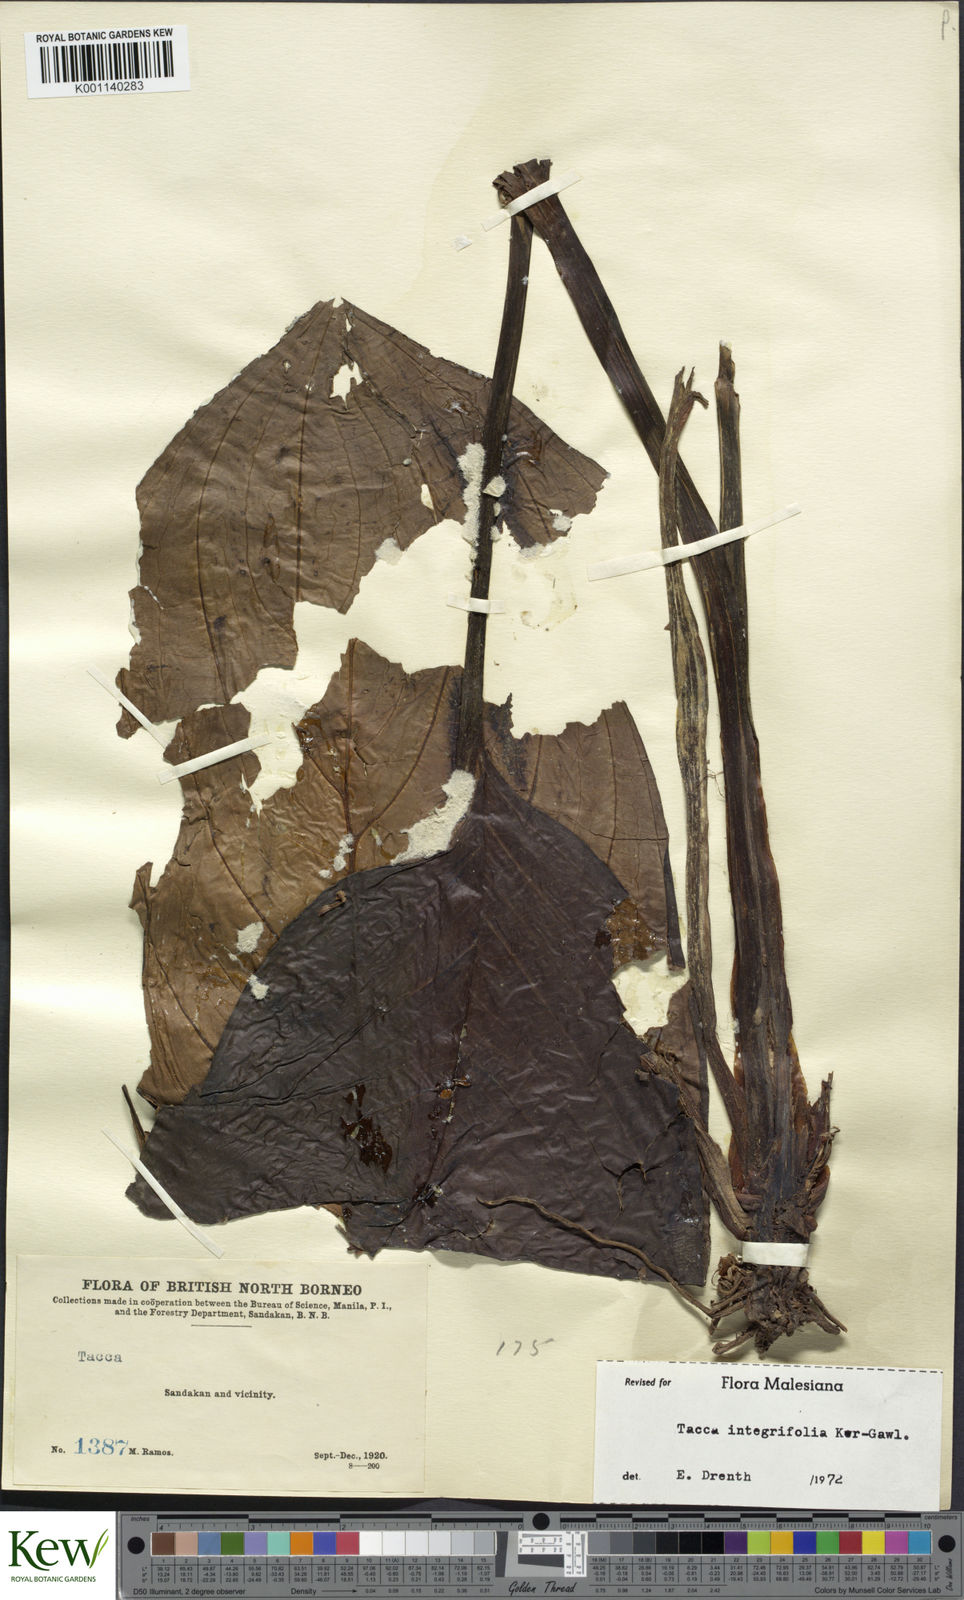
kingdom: Plantae
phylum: Tracheophyta
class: Liliopsida
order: Dioscoreales
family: Dioscoreaceae
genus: Tacca
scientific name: Tacca integrifolia
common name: Batplant
